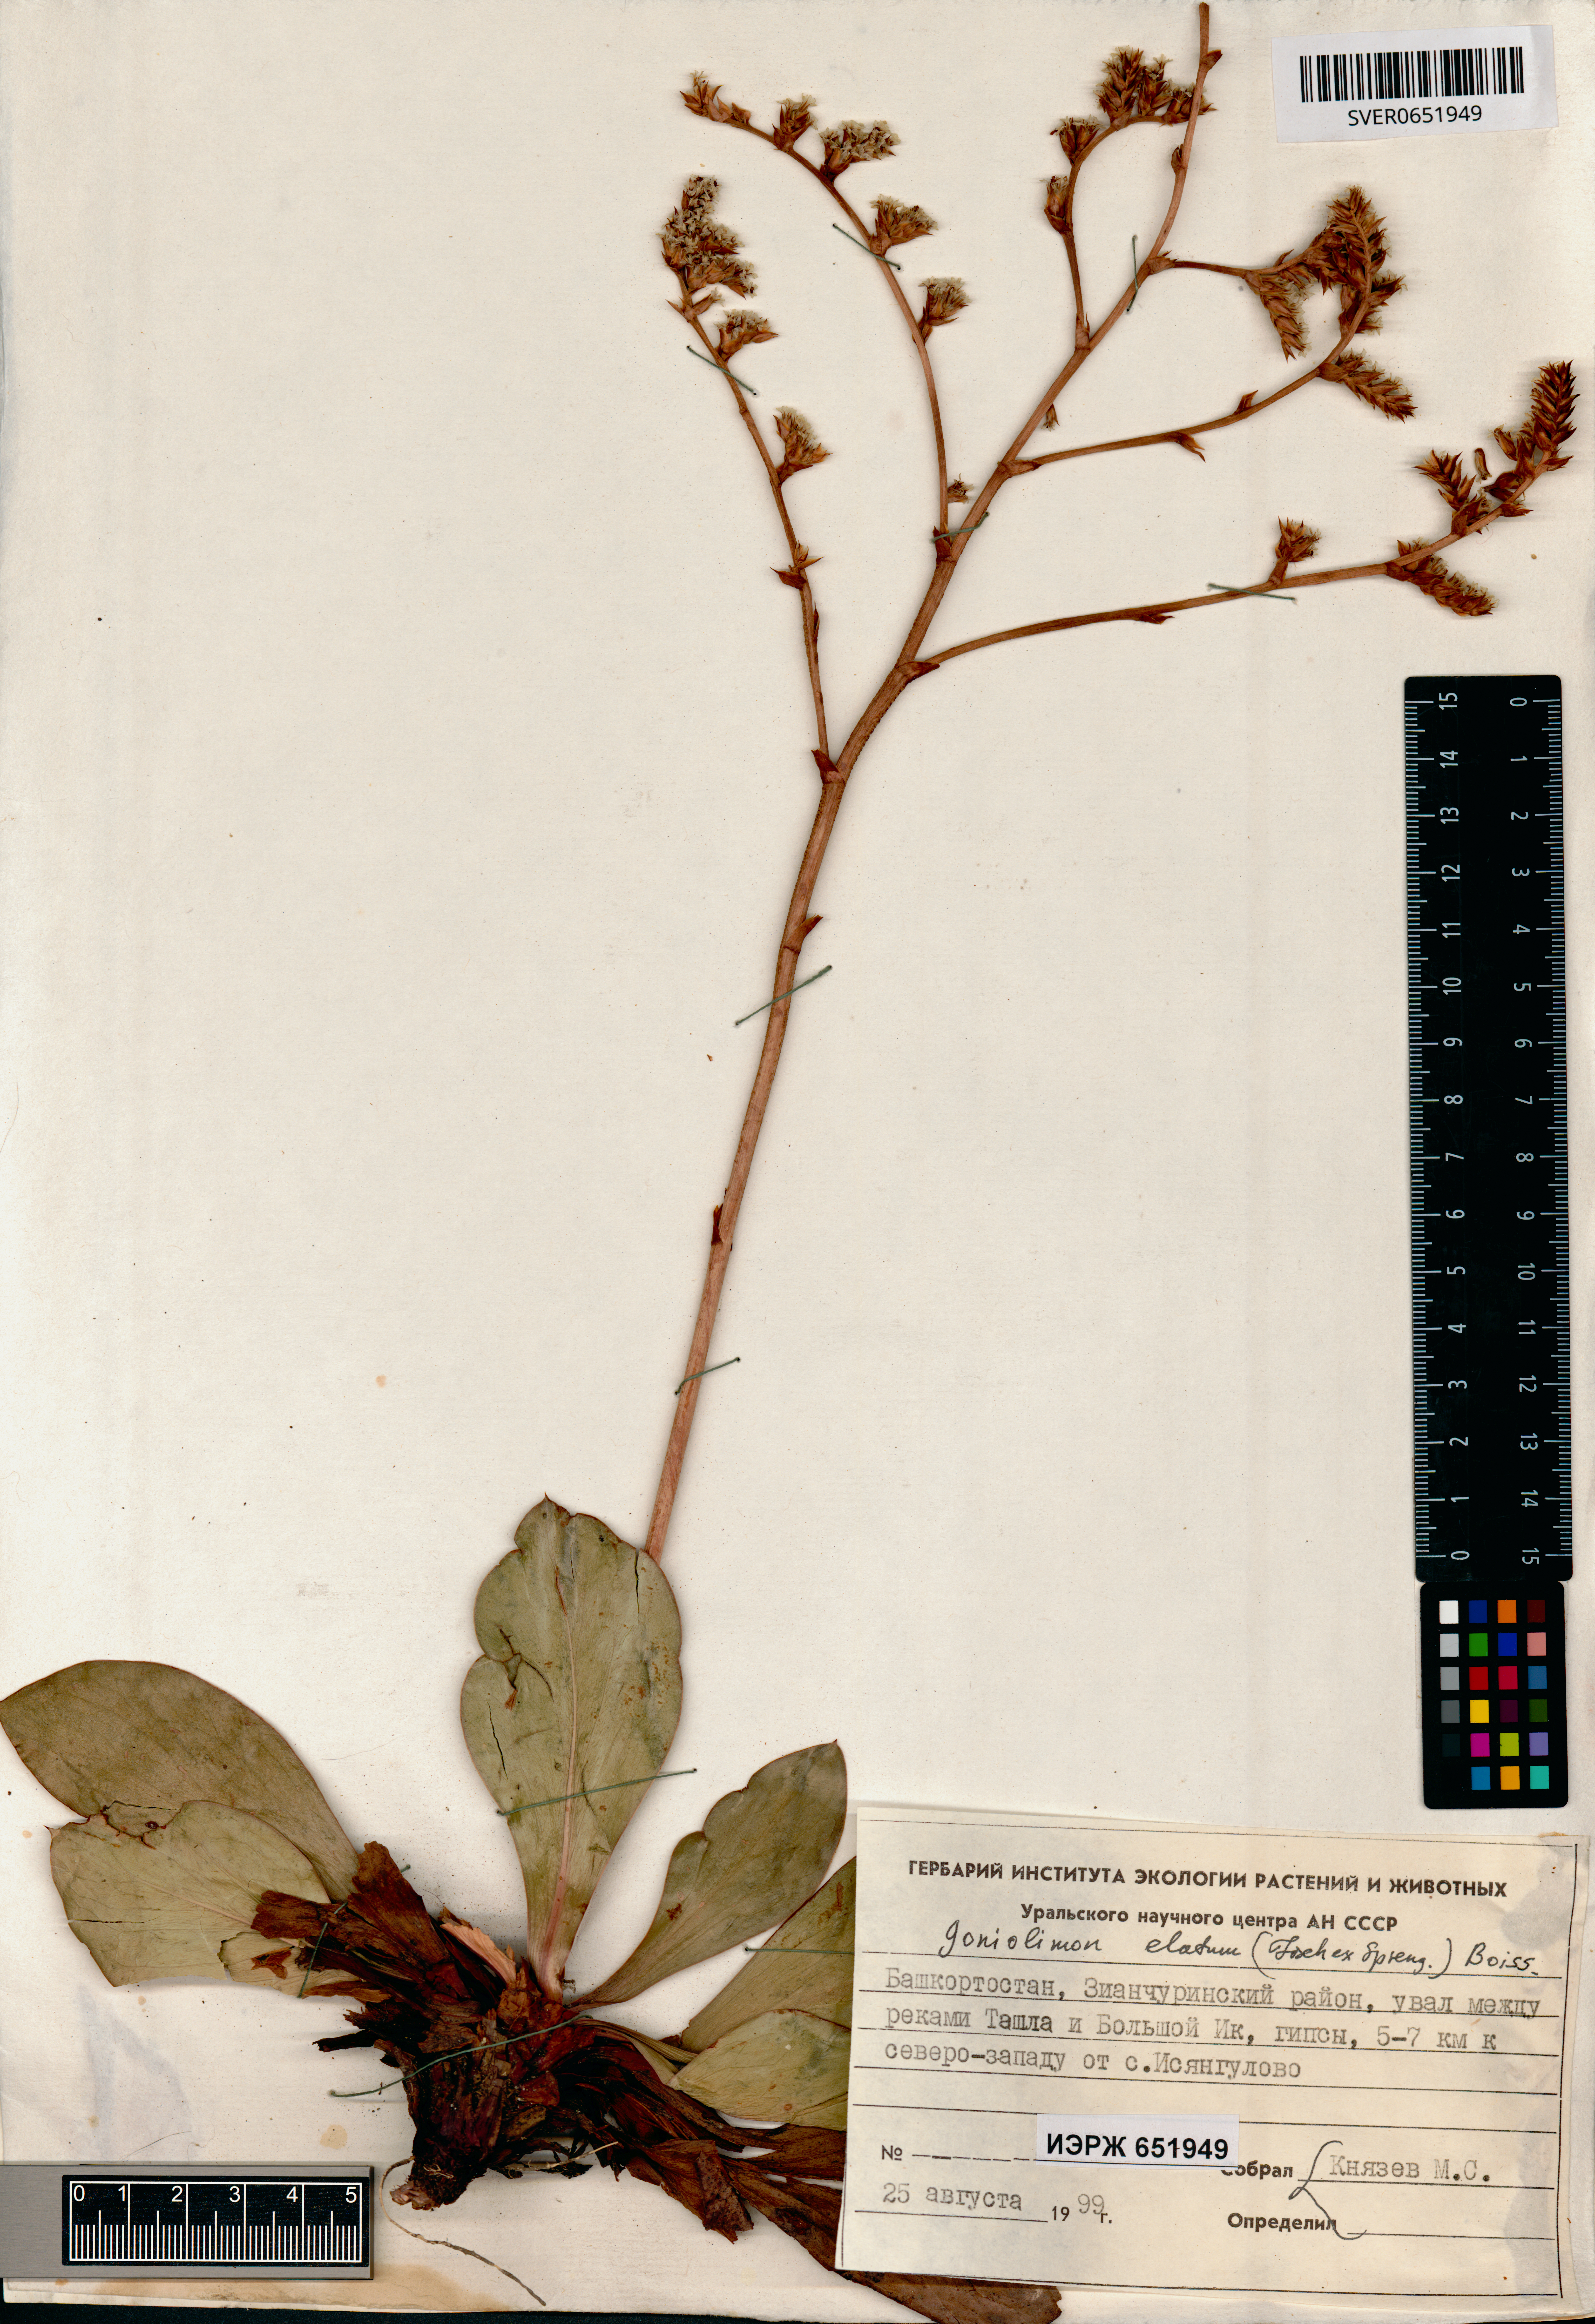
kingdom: Plantae
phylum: Tracheophyta
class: Magnoliopsida
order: Caryophyllales
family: Plumbaginaceae
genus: Goniolimon
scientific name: Goniolimon elatum
